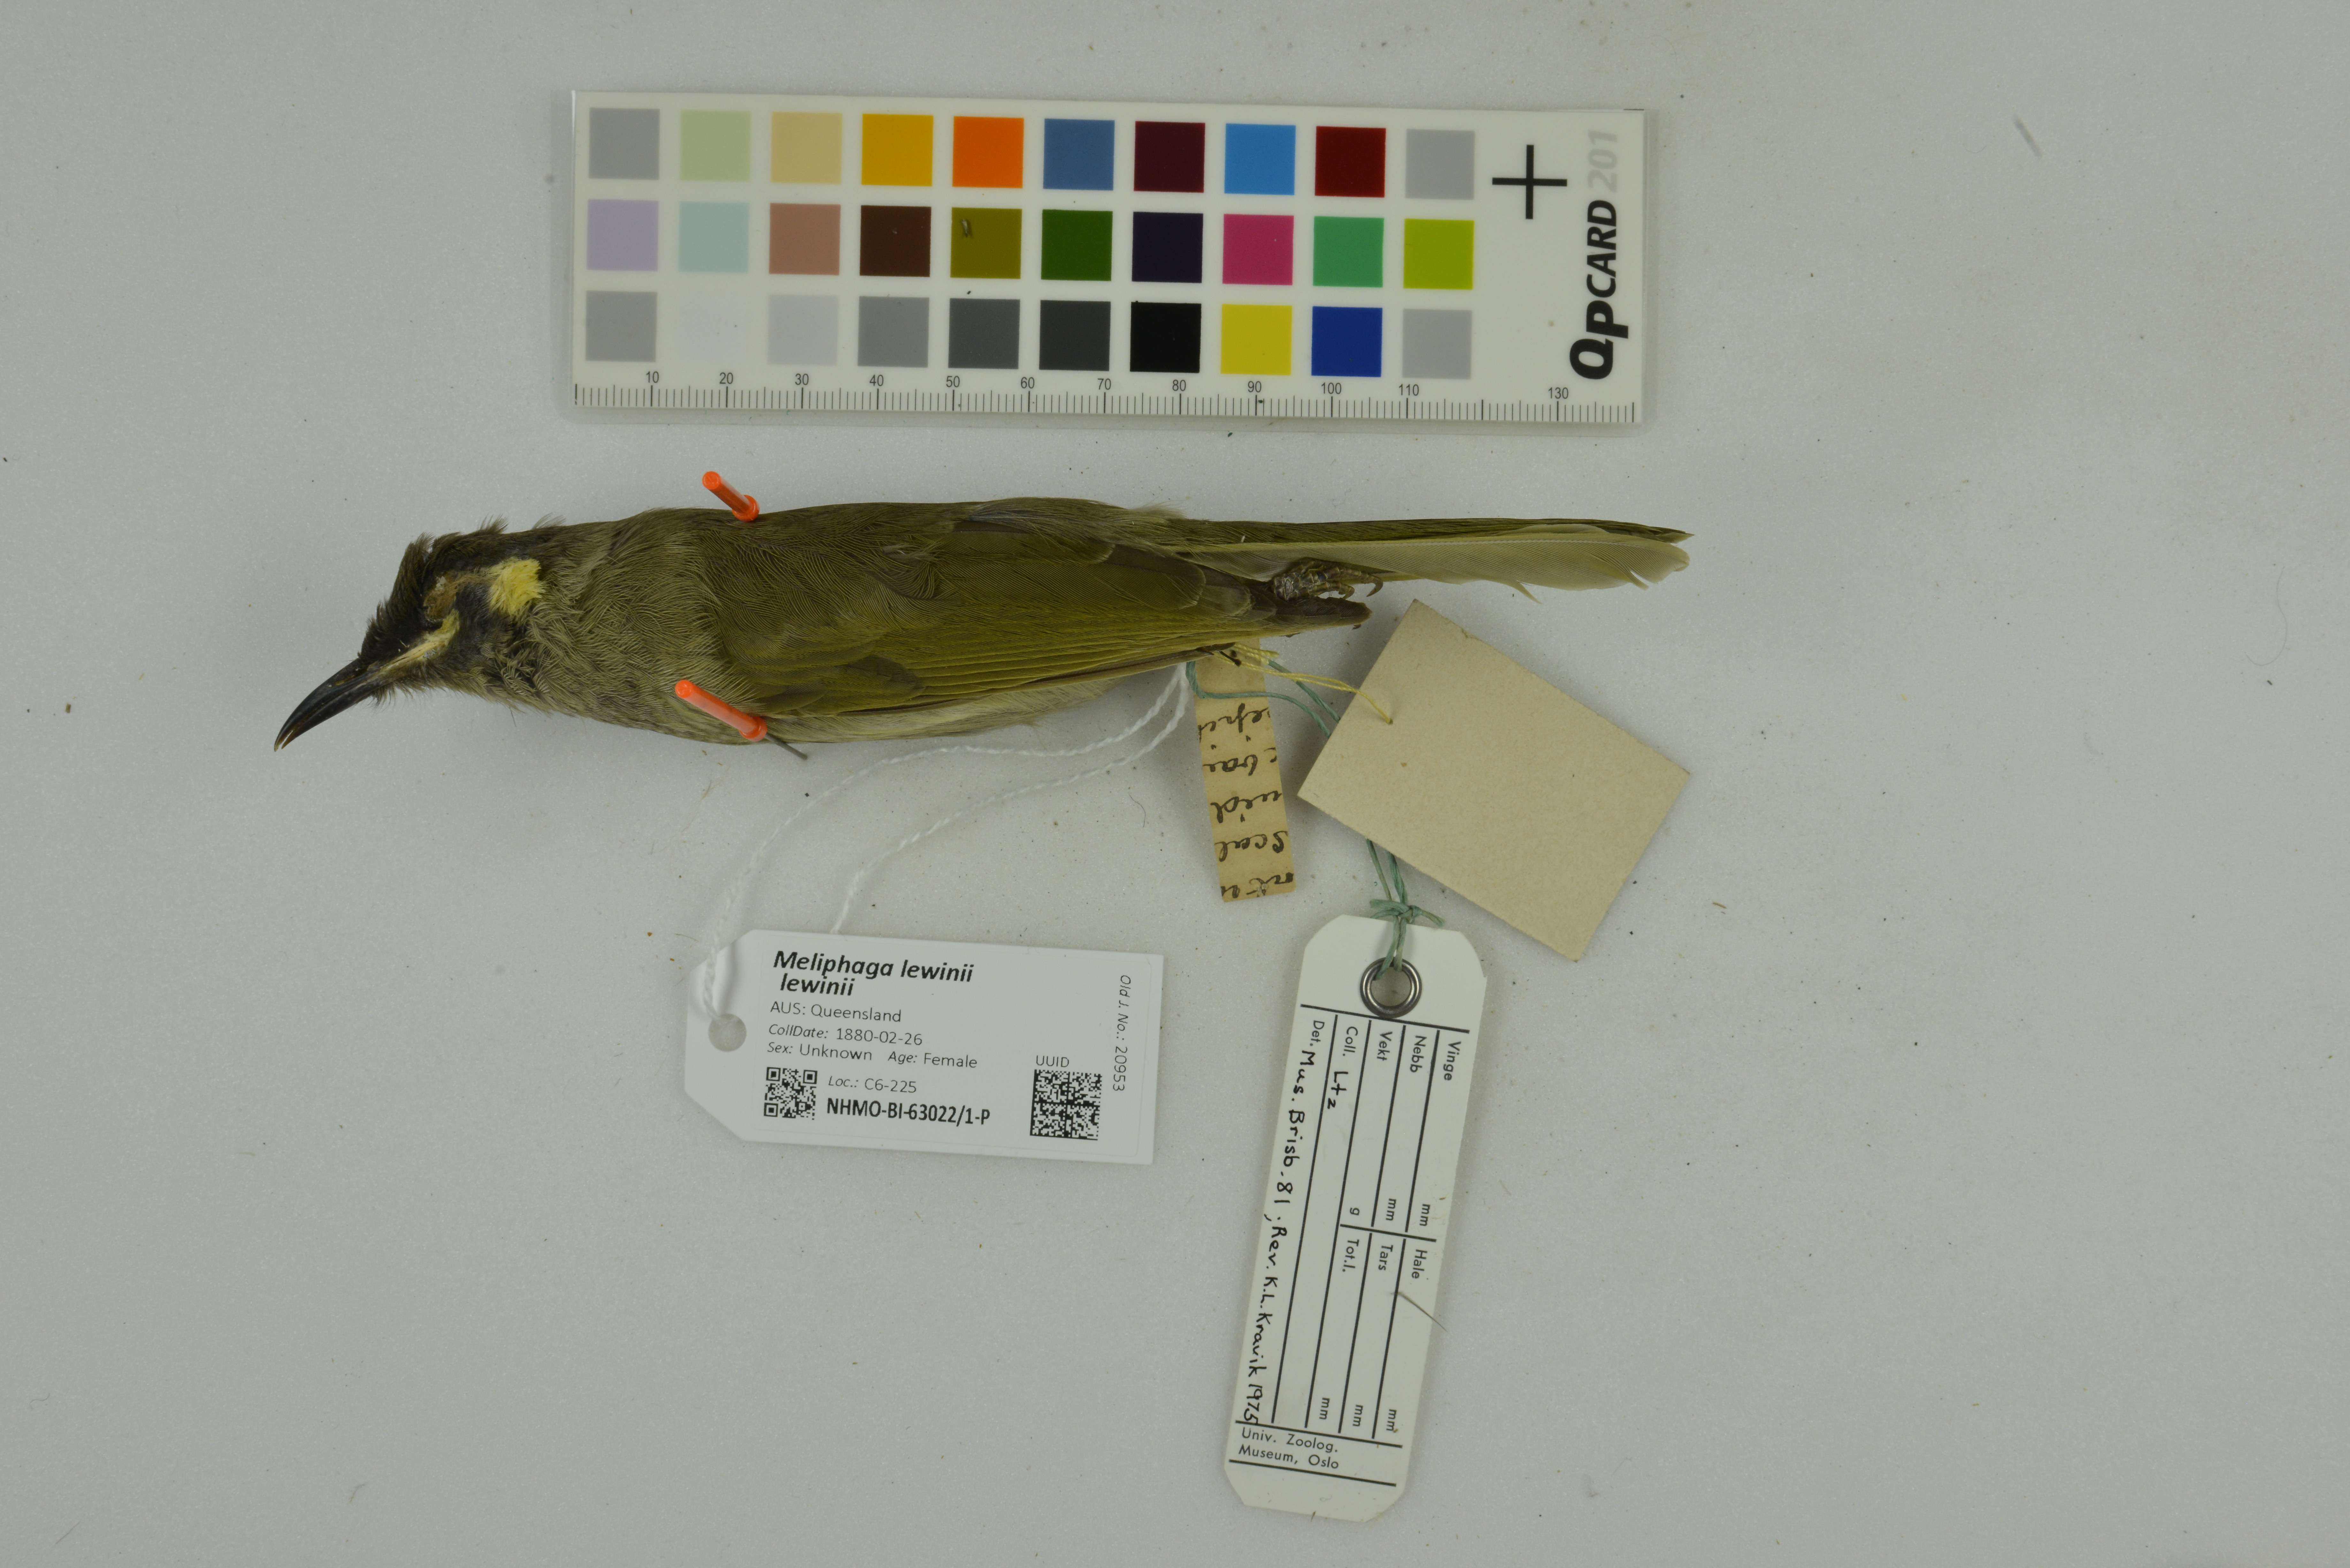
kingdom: Animalia
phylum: Chordata
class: Aves
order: Passeriformes
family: Meliphagidae
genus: Meliphaga
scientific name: Meliphaga lewinii
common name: Lewin's honeyeater
